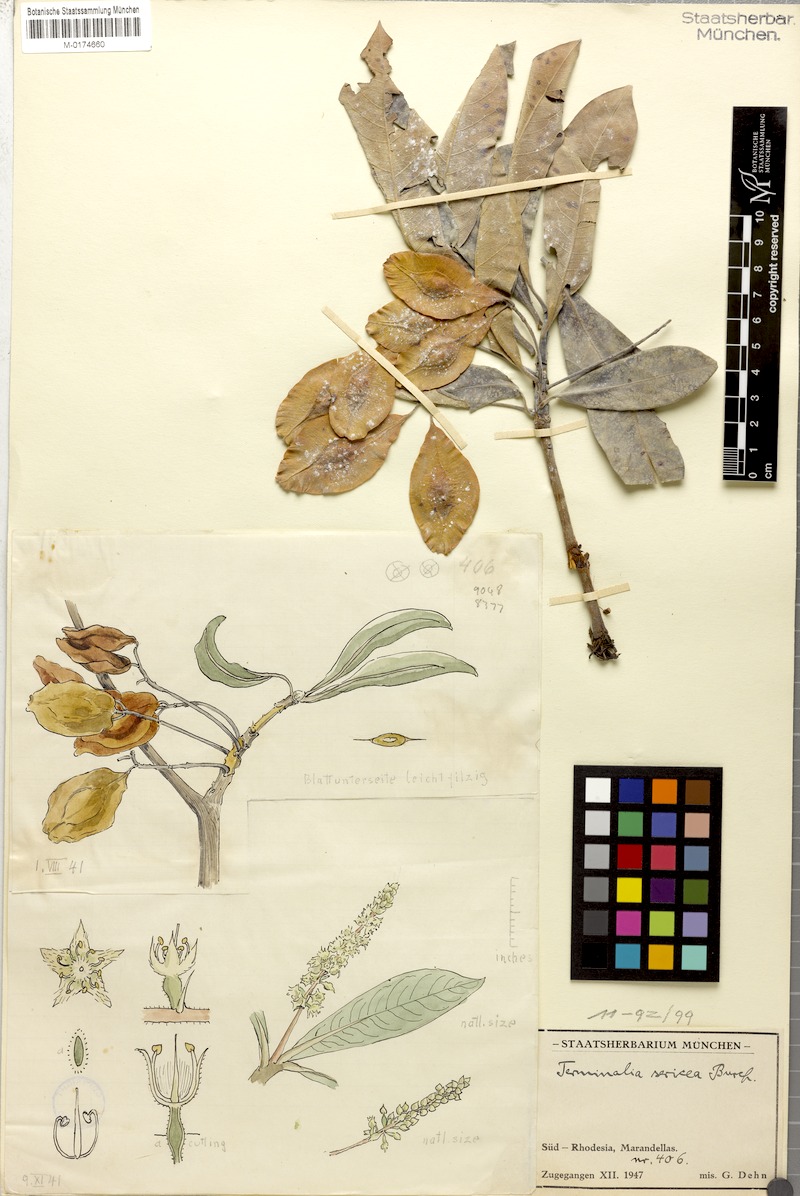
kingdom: Plantae
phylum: Tracheophyta
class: Magnoliopsida
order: Myrtales
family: Combretaceae
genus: Terminalia
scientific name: Terminalia sericea
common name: Clusterleaf
